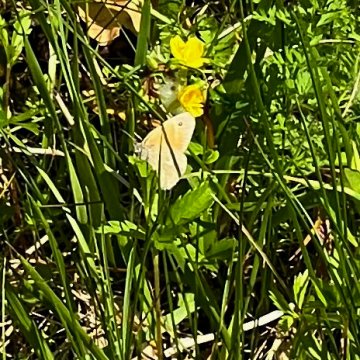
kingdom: Animalia
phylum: Arthropoda
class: Insecta
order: Lepidoptera
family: Nymphalidae
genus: Coenonympha
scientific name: Coenonympha tullia
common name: Large Heath
